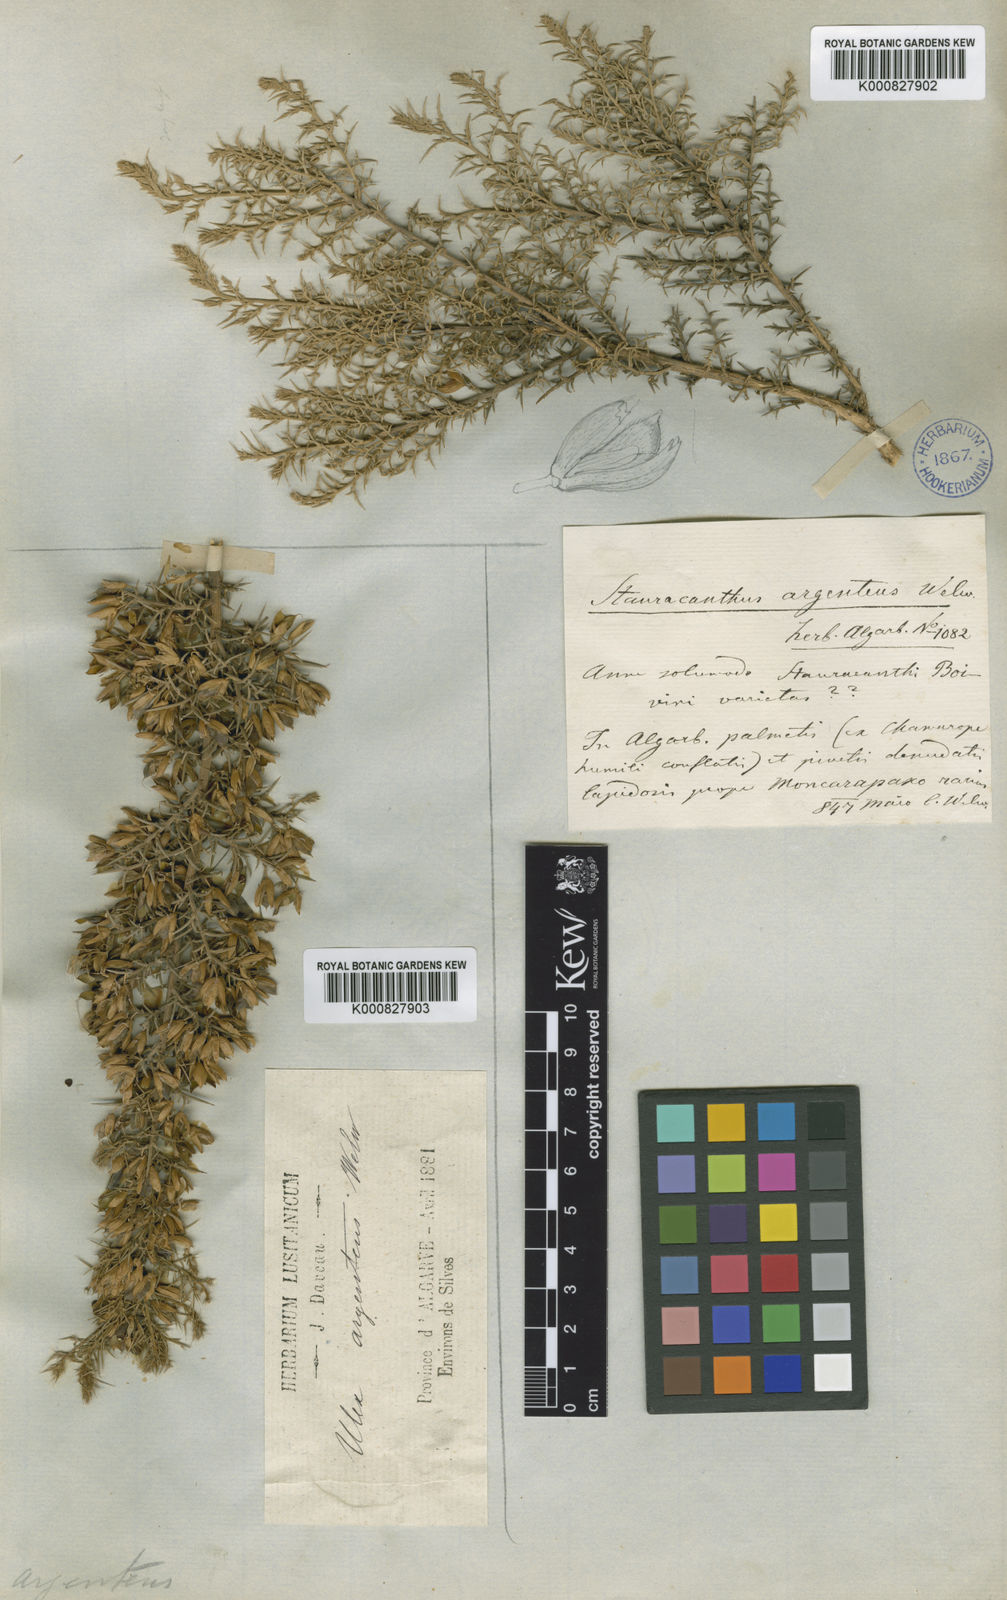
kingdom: Plantae
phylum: Tracheophyta
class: Magnoliopsida
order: Fabales
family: Fabaceae
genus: Ulex
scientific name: Ulex argenteus
